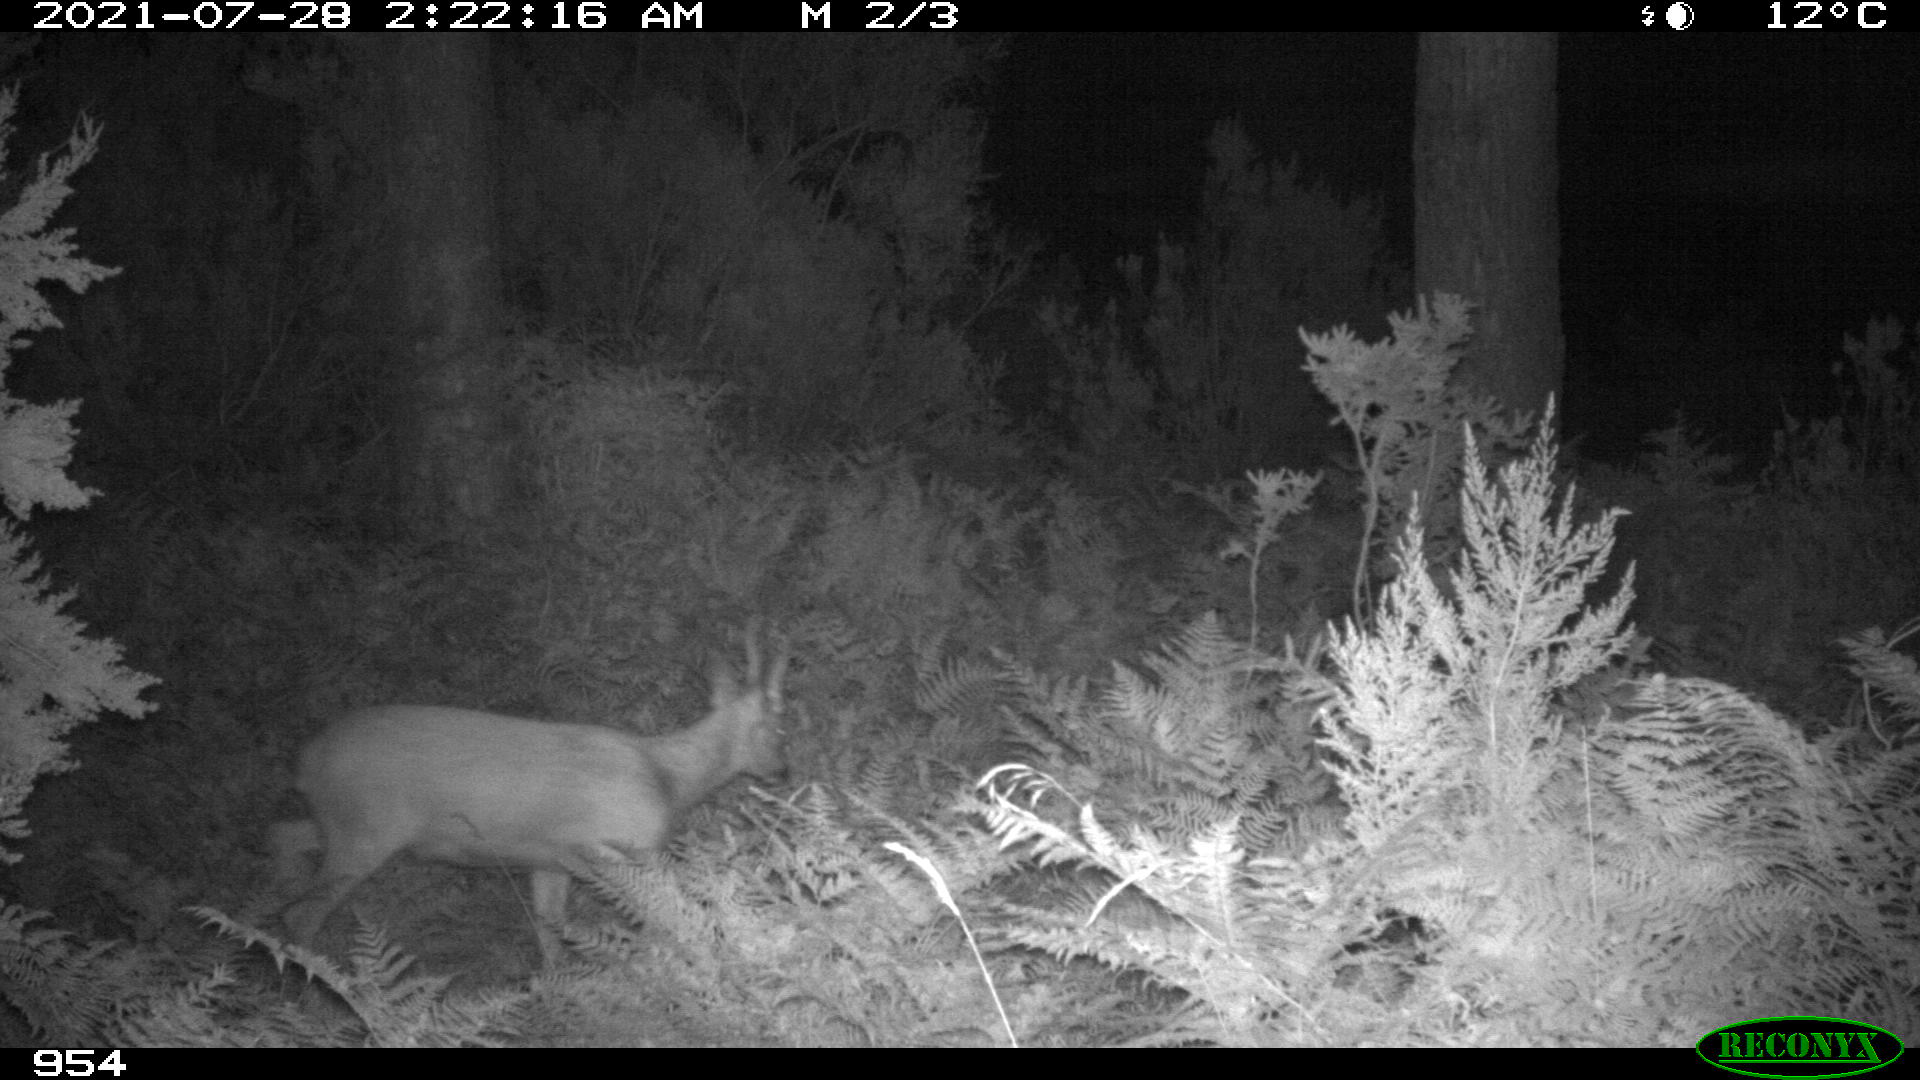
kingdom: Animalia
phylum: Chordata
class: Mammalia
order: Artiodactyla
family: Cervidae
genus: Capreolus
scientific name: Capreolus capreolus
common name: Western roe deer
